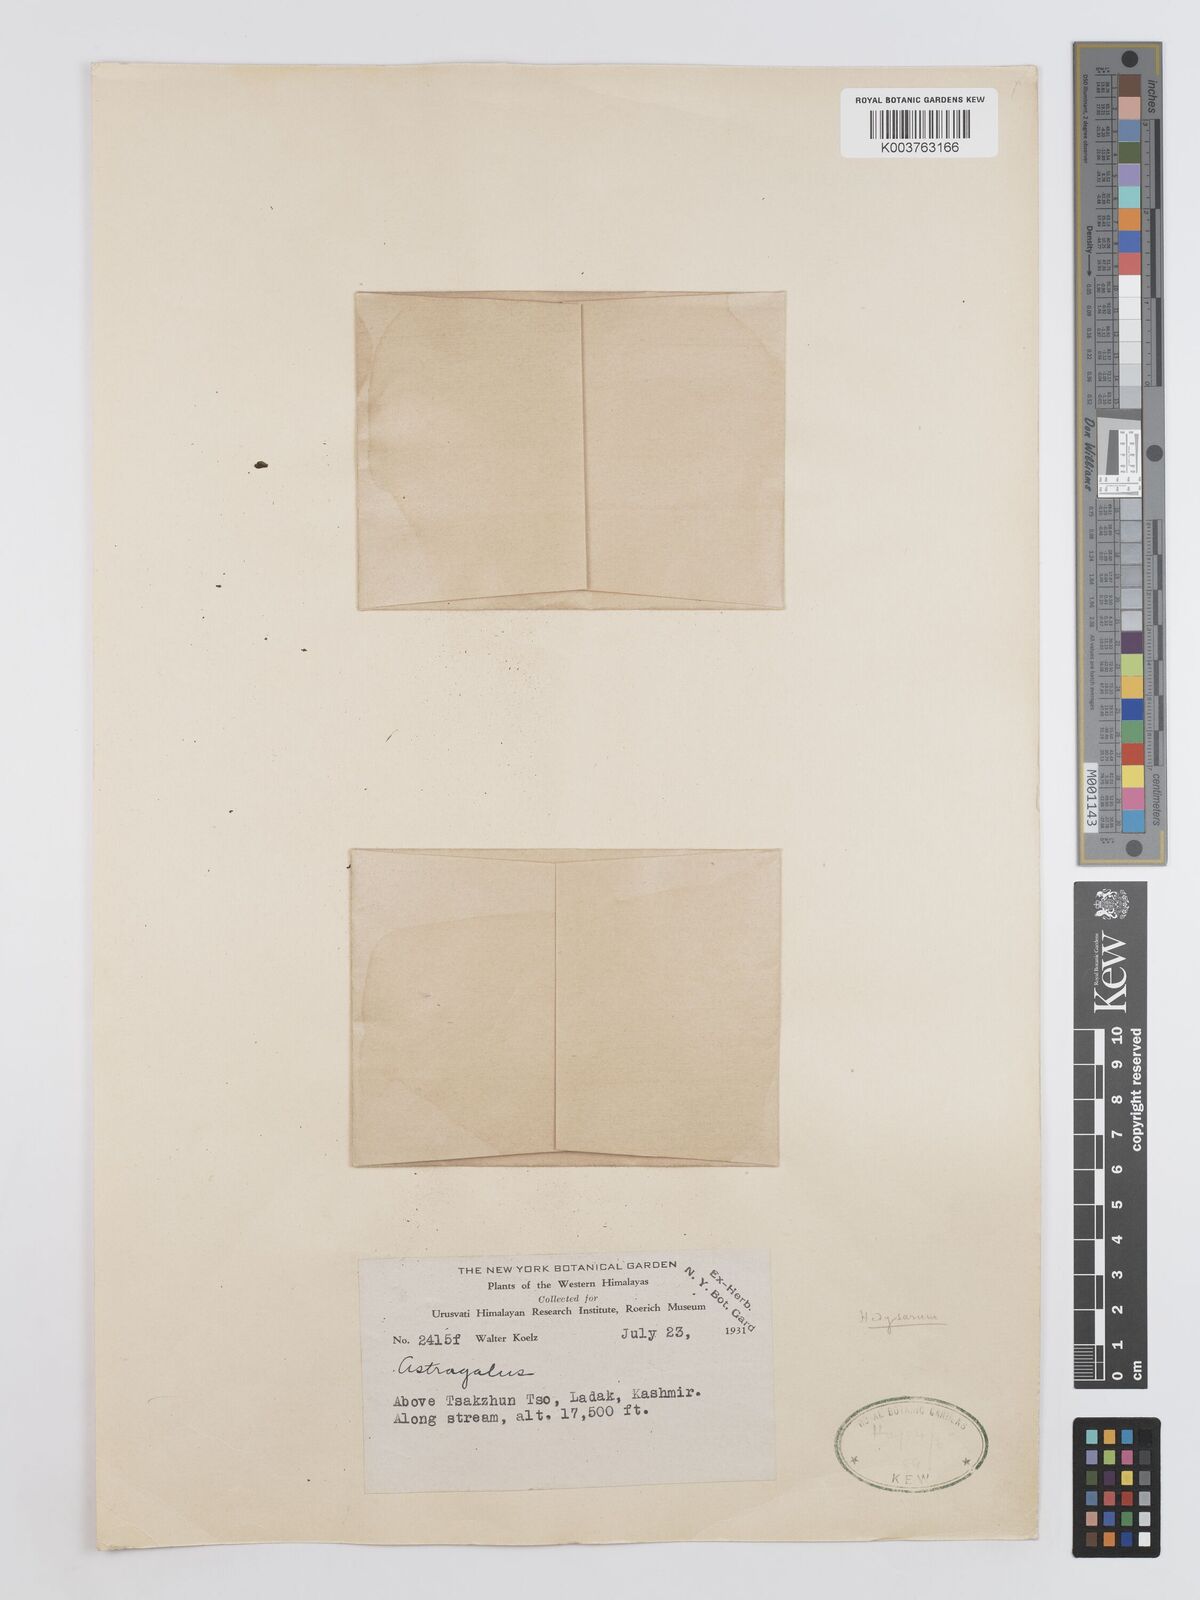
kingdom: Plantae
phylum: Tracheophyta
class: Magnoliopsida
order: Fabales
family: Fabaceae
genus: Hedysarum
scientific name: Hedysarum
